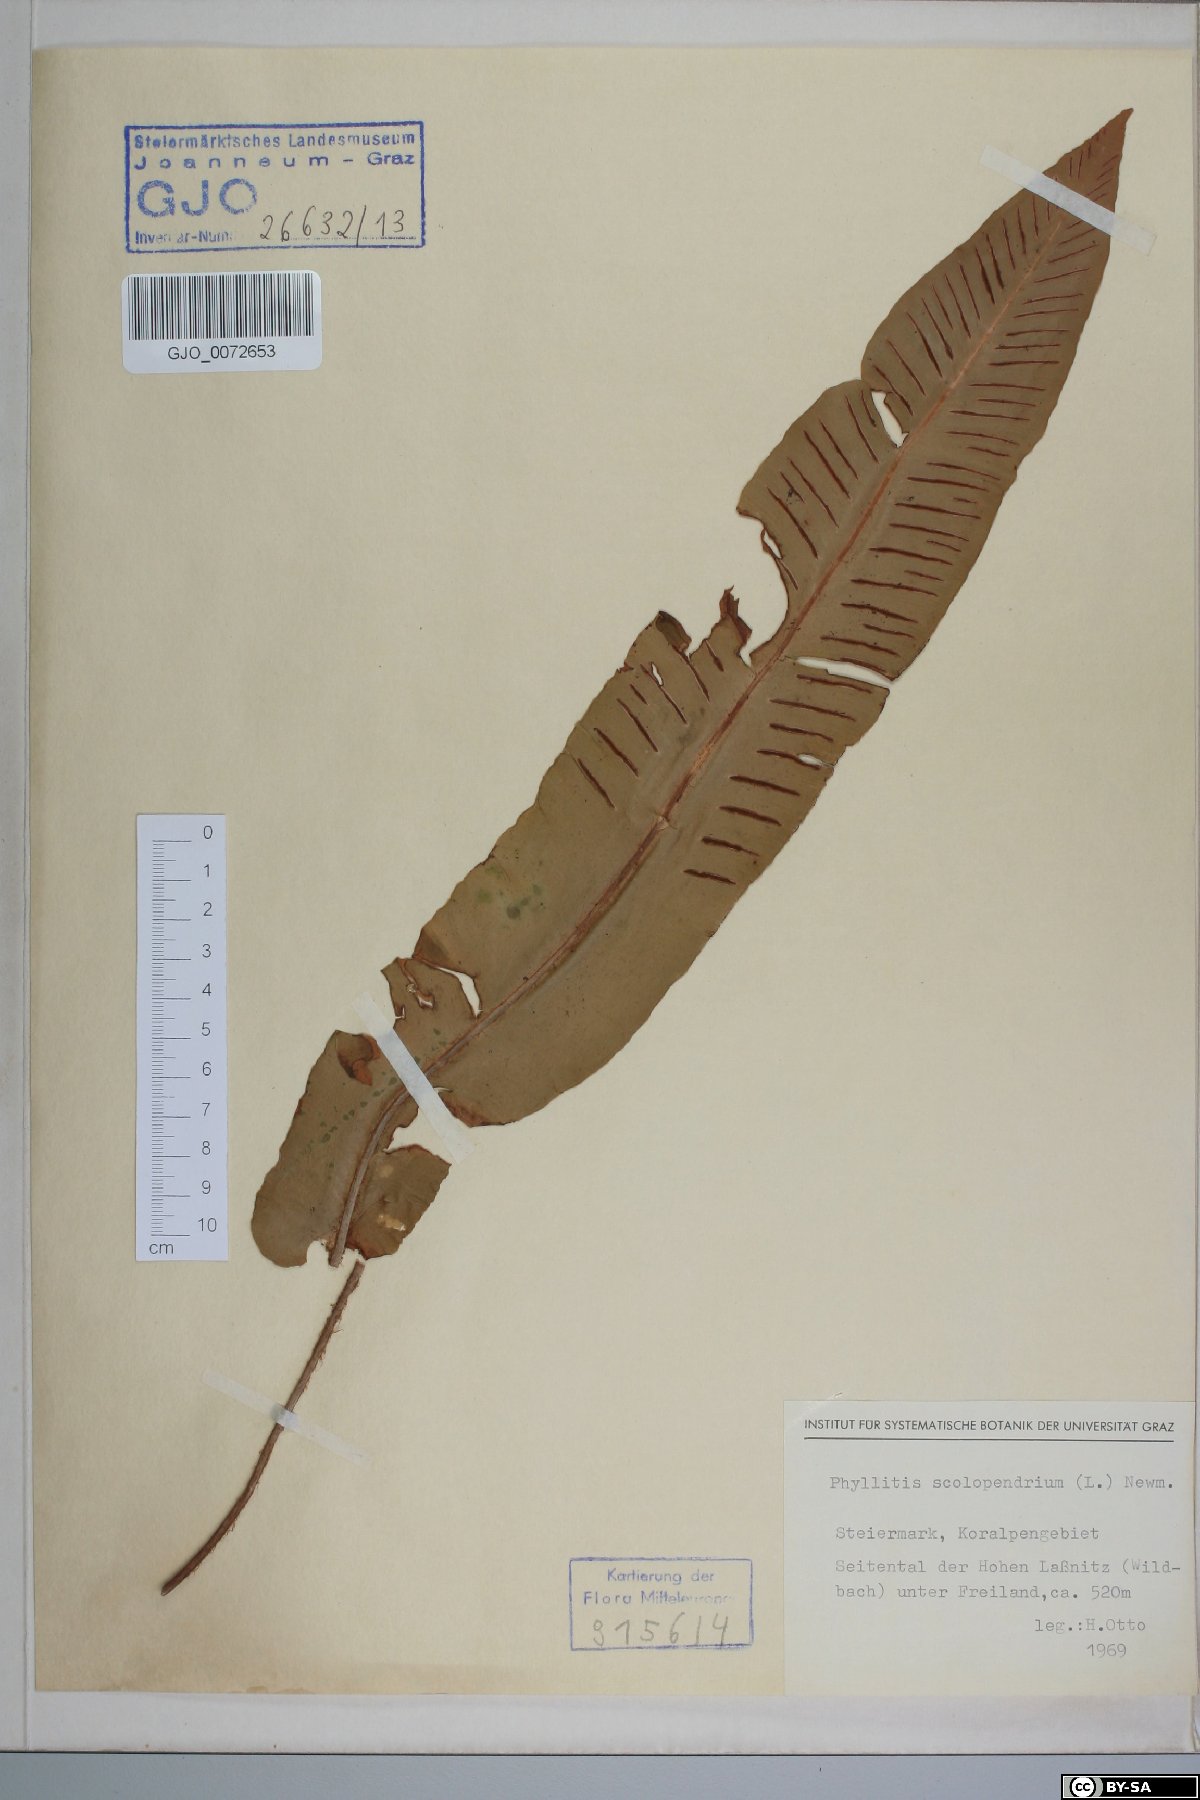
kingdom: Plantae
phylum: Tracheophyta
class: Polypodiopsida
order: Polypodiales
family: Aspleniaceae
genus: Asplenium
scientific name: Asplenium scolopendrium
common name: Hart's-tongue fern
